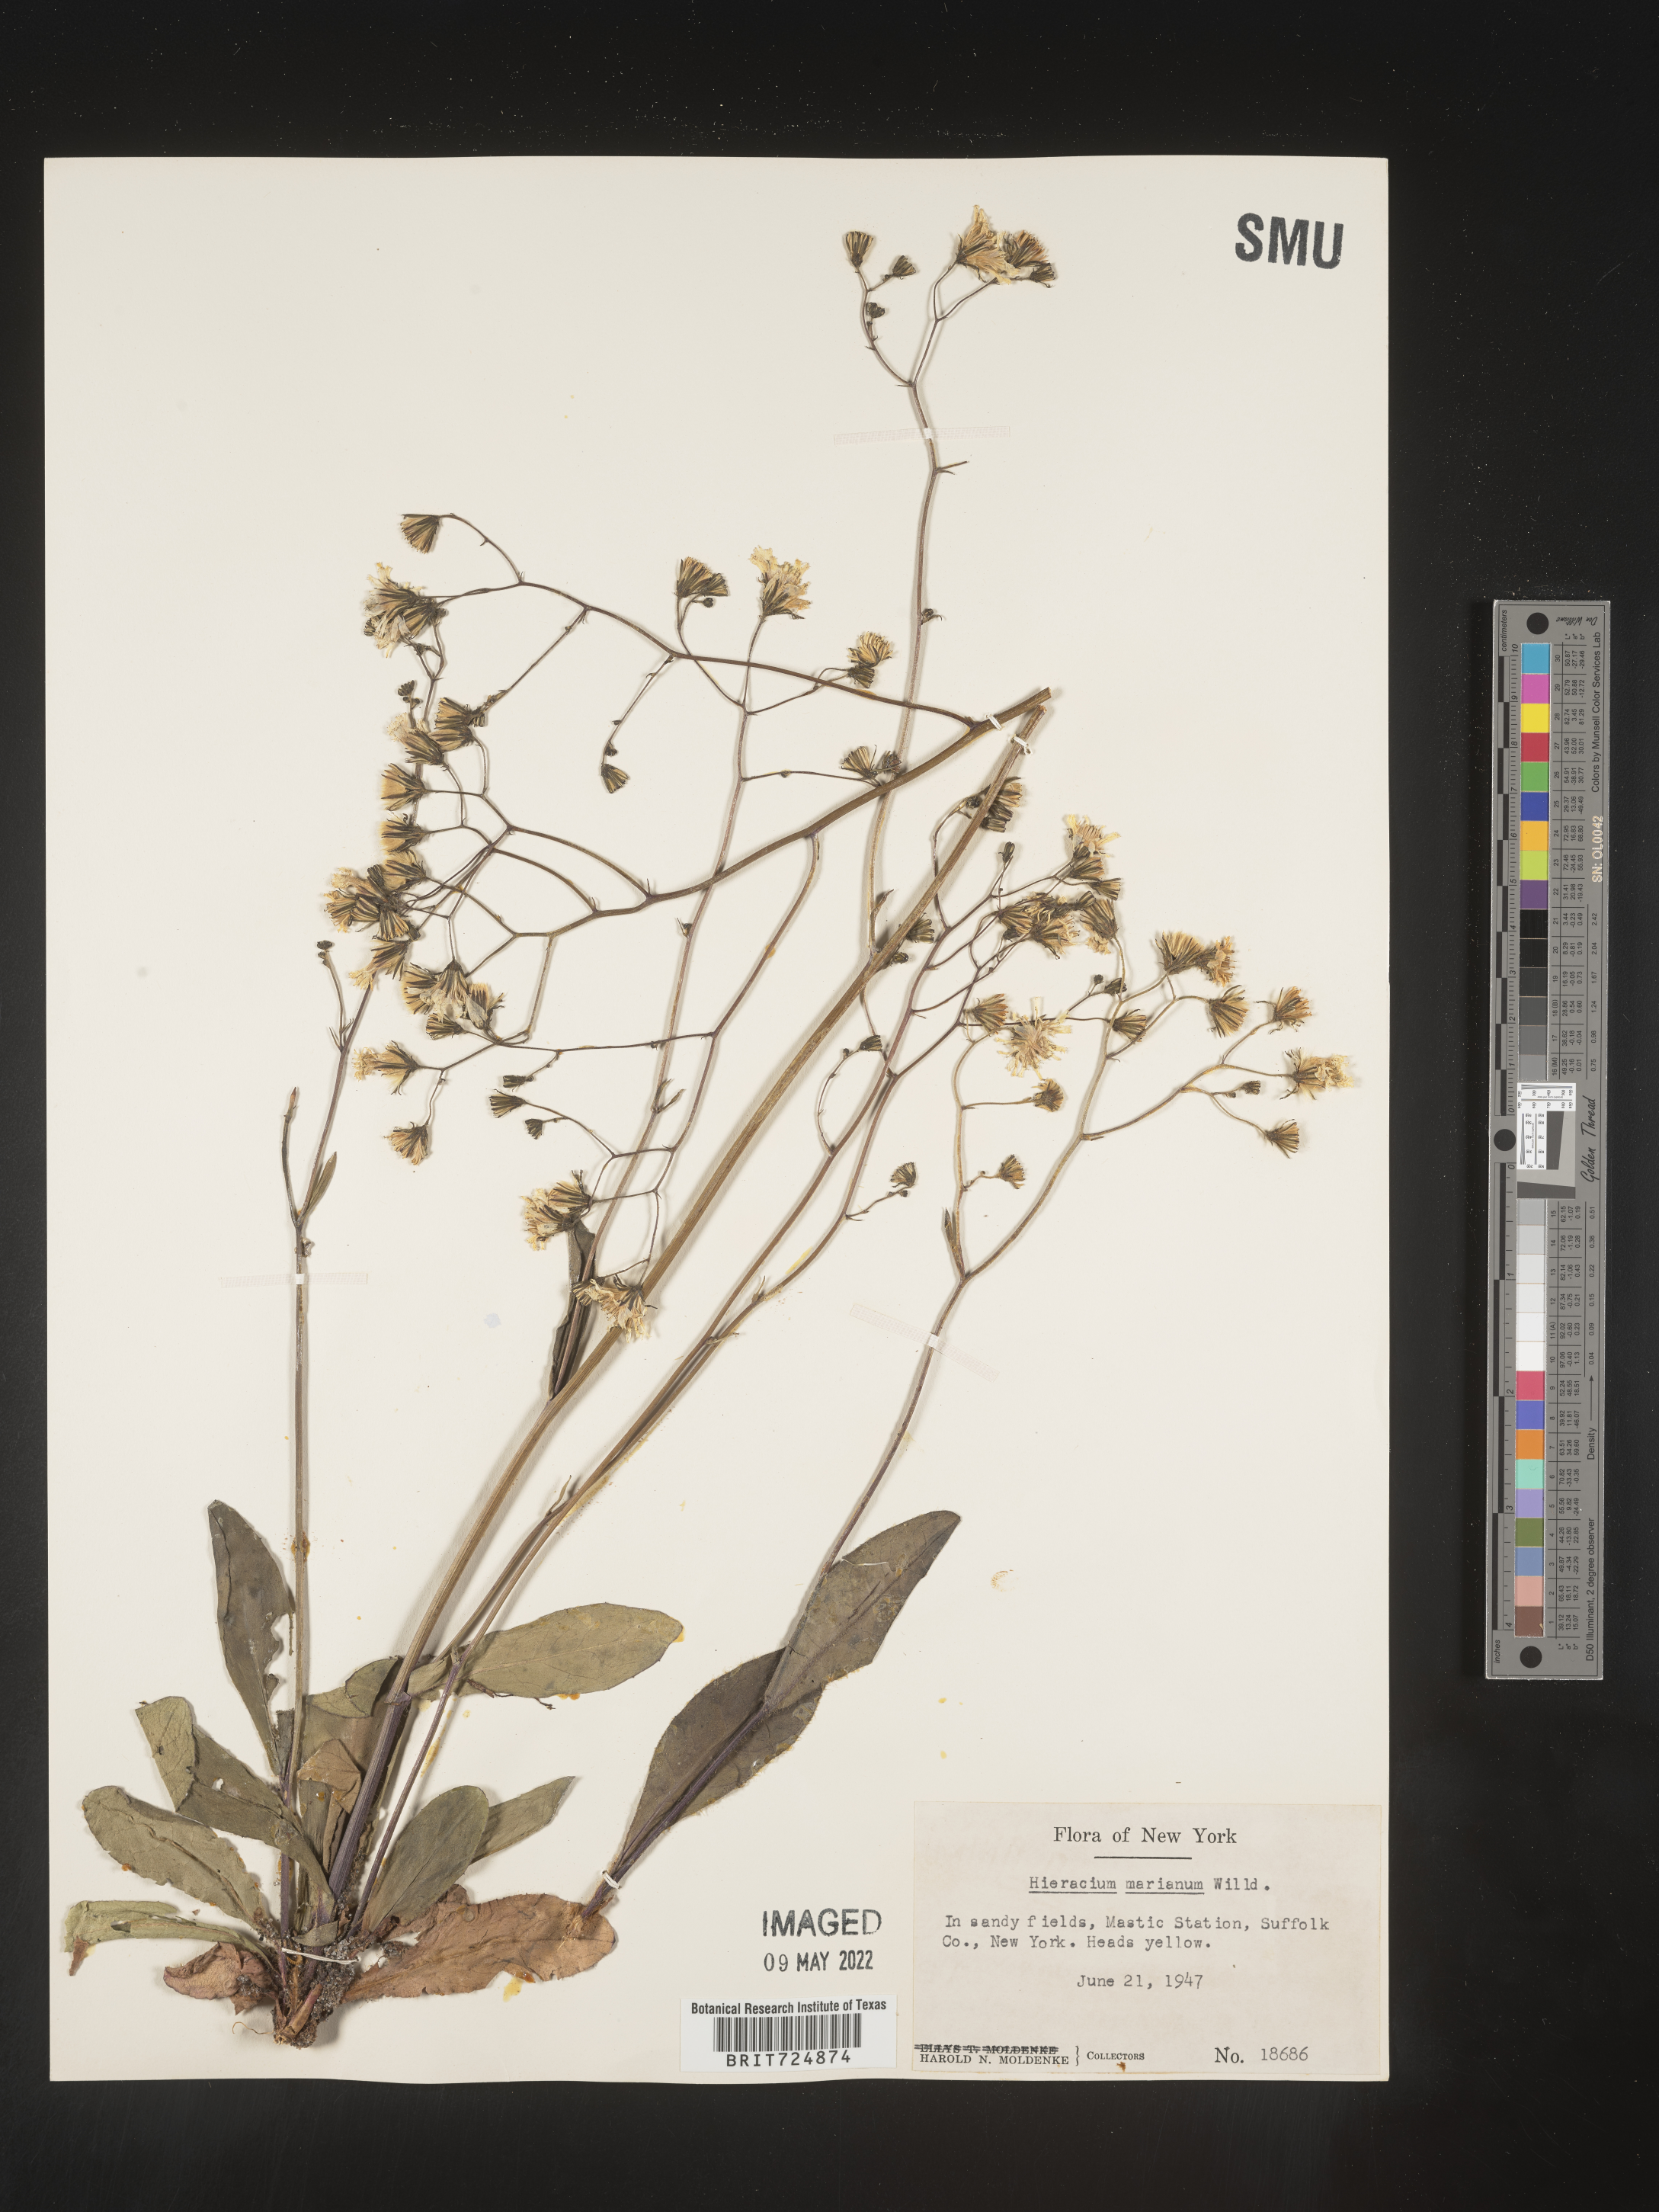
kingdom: Plantae
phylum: Tracheophyta
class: Magnoliopsida
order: Asterales
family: Asteraceae
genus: Hieracium
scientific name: Hieracium longipilum
